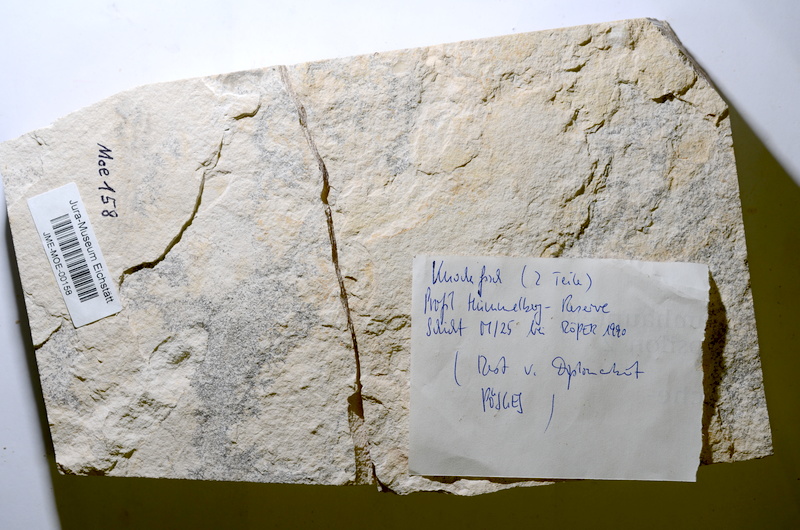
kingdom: Animalia
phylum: Chordata
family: Ascalaboidae
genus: Tharsis
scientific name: Tharsis
